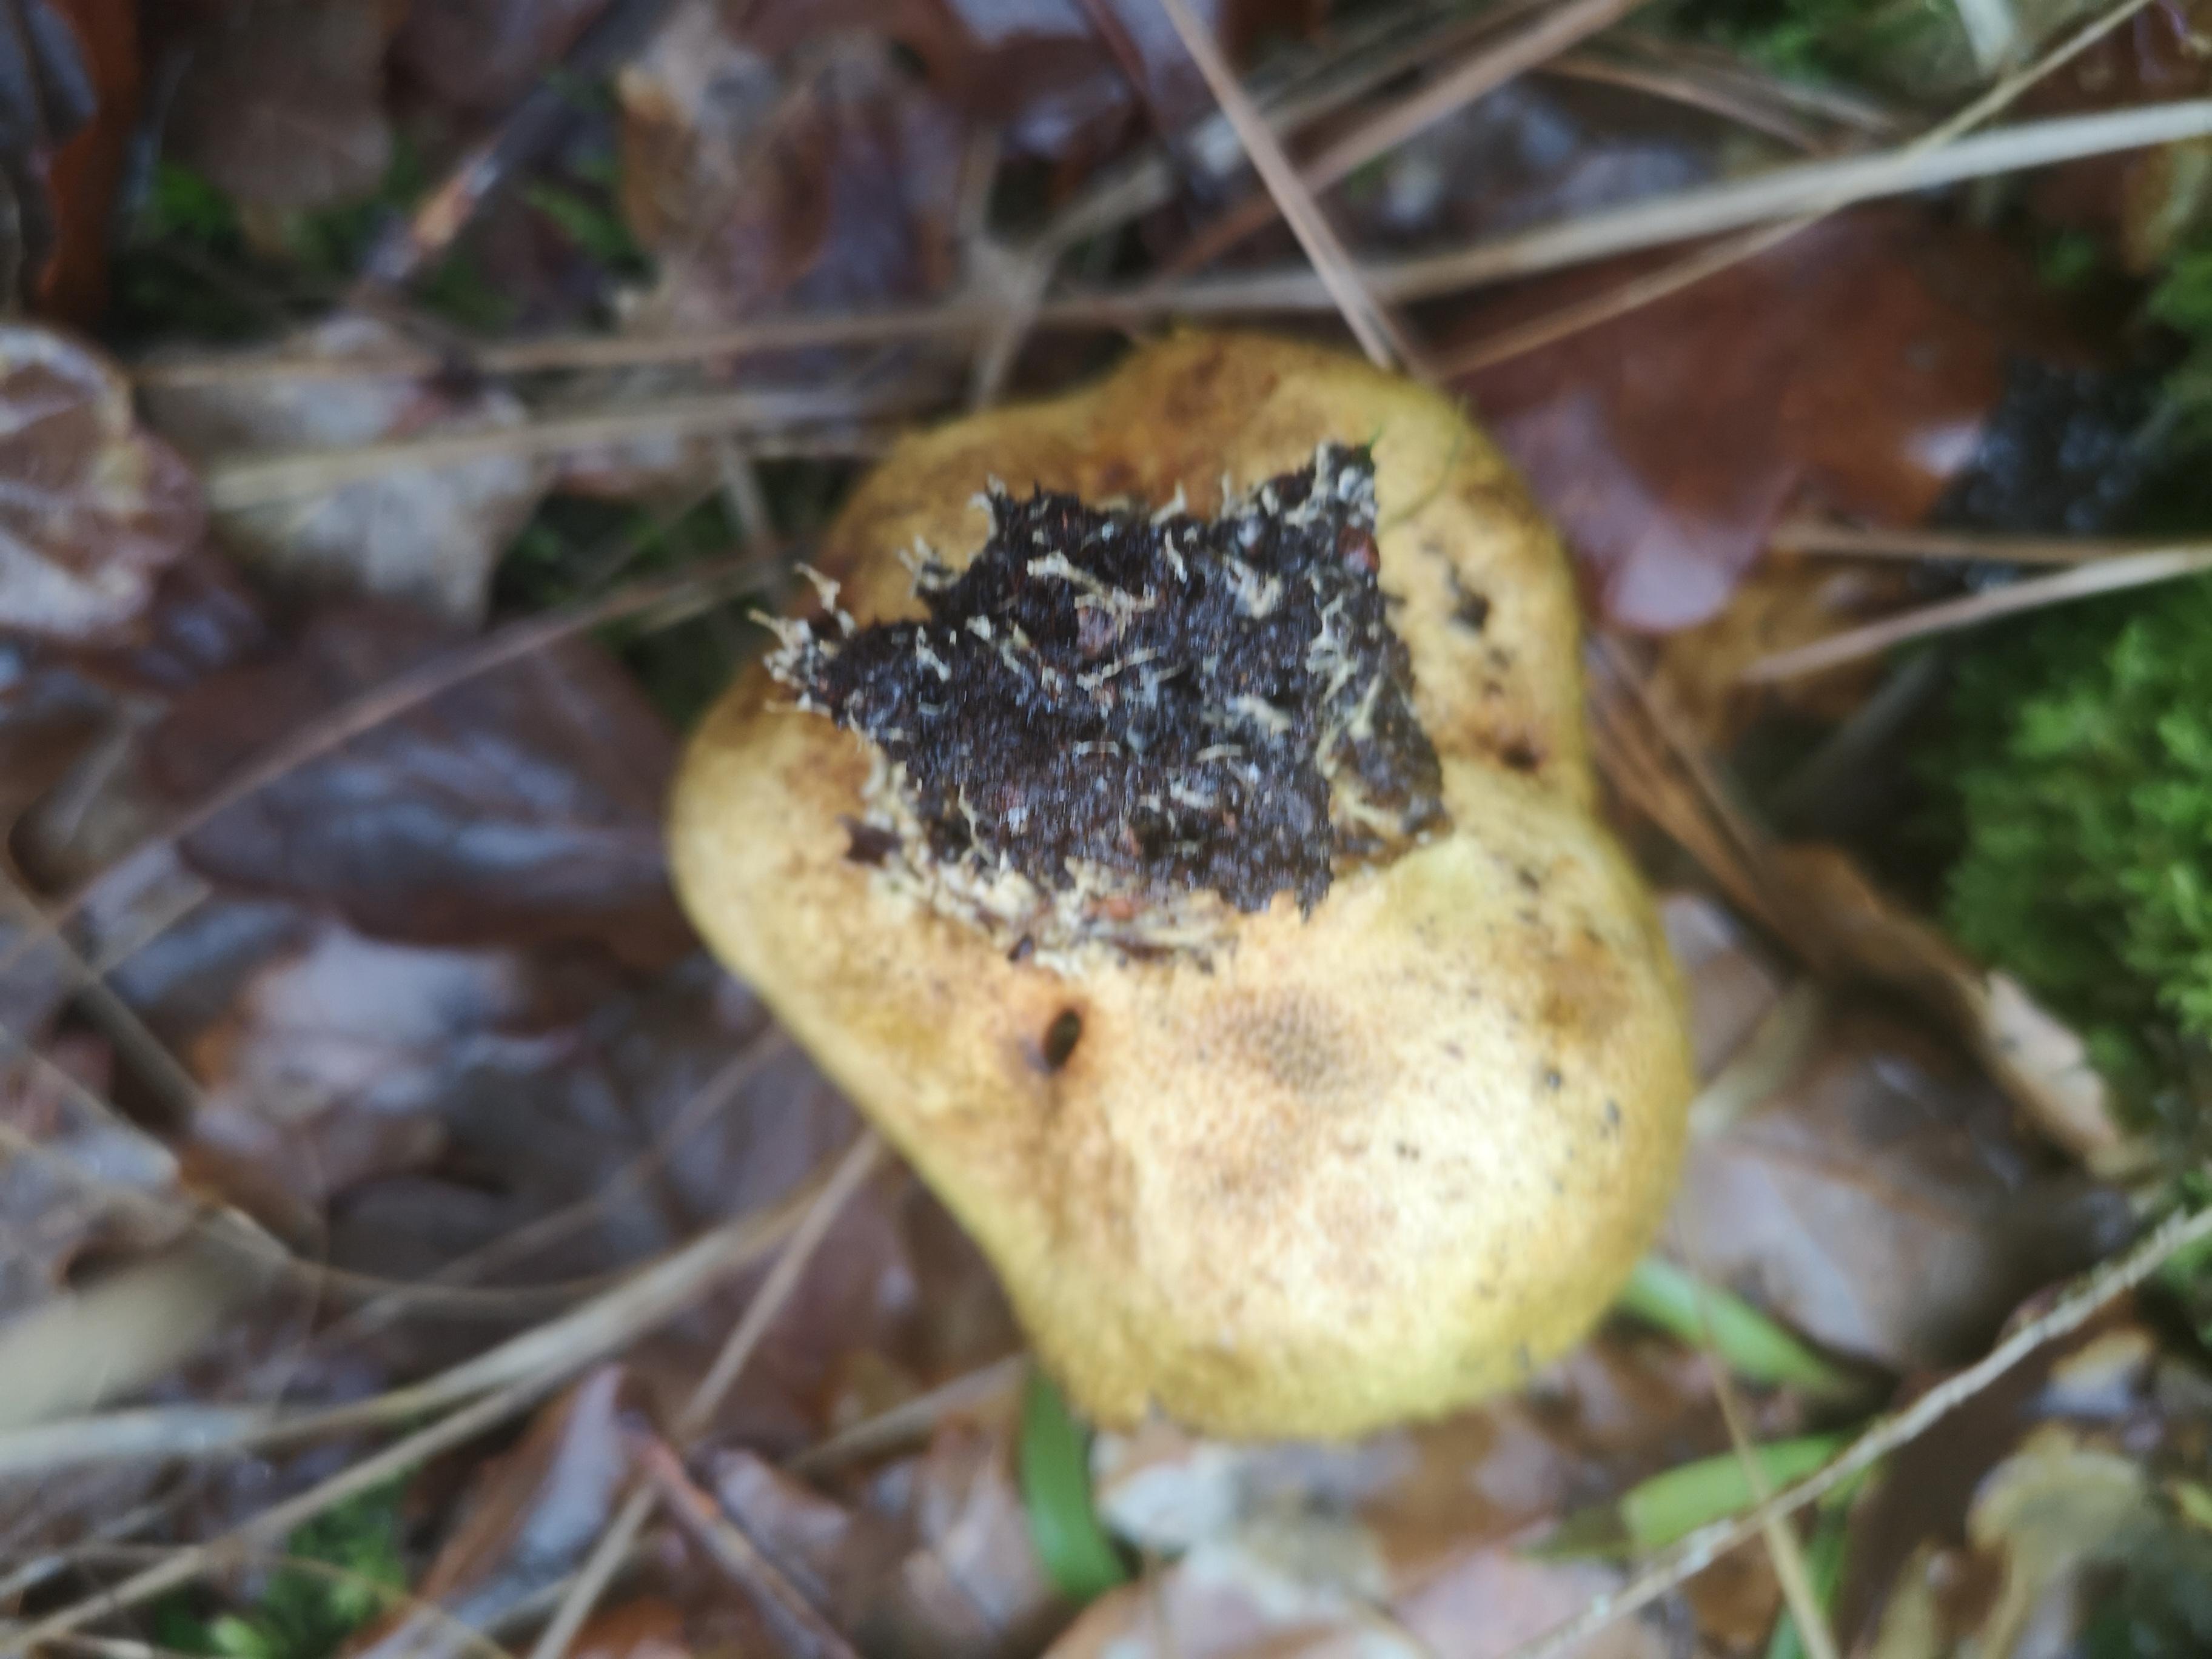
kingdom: Fungi
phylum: Basidiomycota
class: Agaricomycetes
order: Boletales
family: Sclerodermataceae
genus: Scleroderma
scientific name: Scleroderma citrinum
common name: almindelig bruskbold
